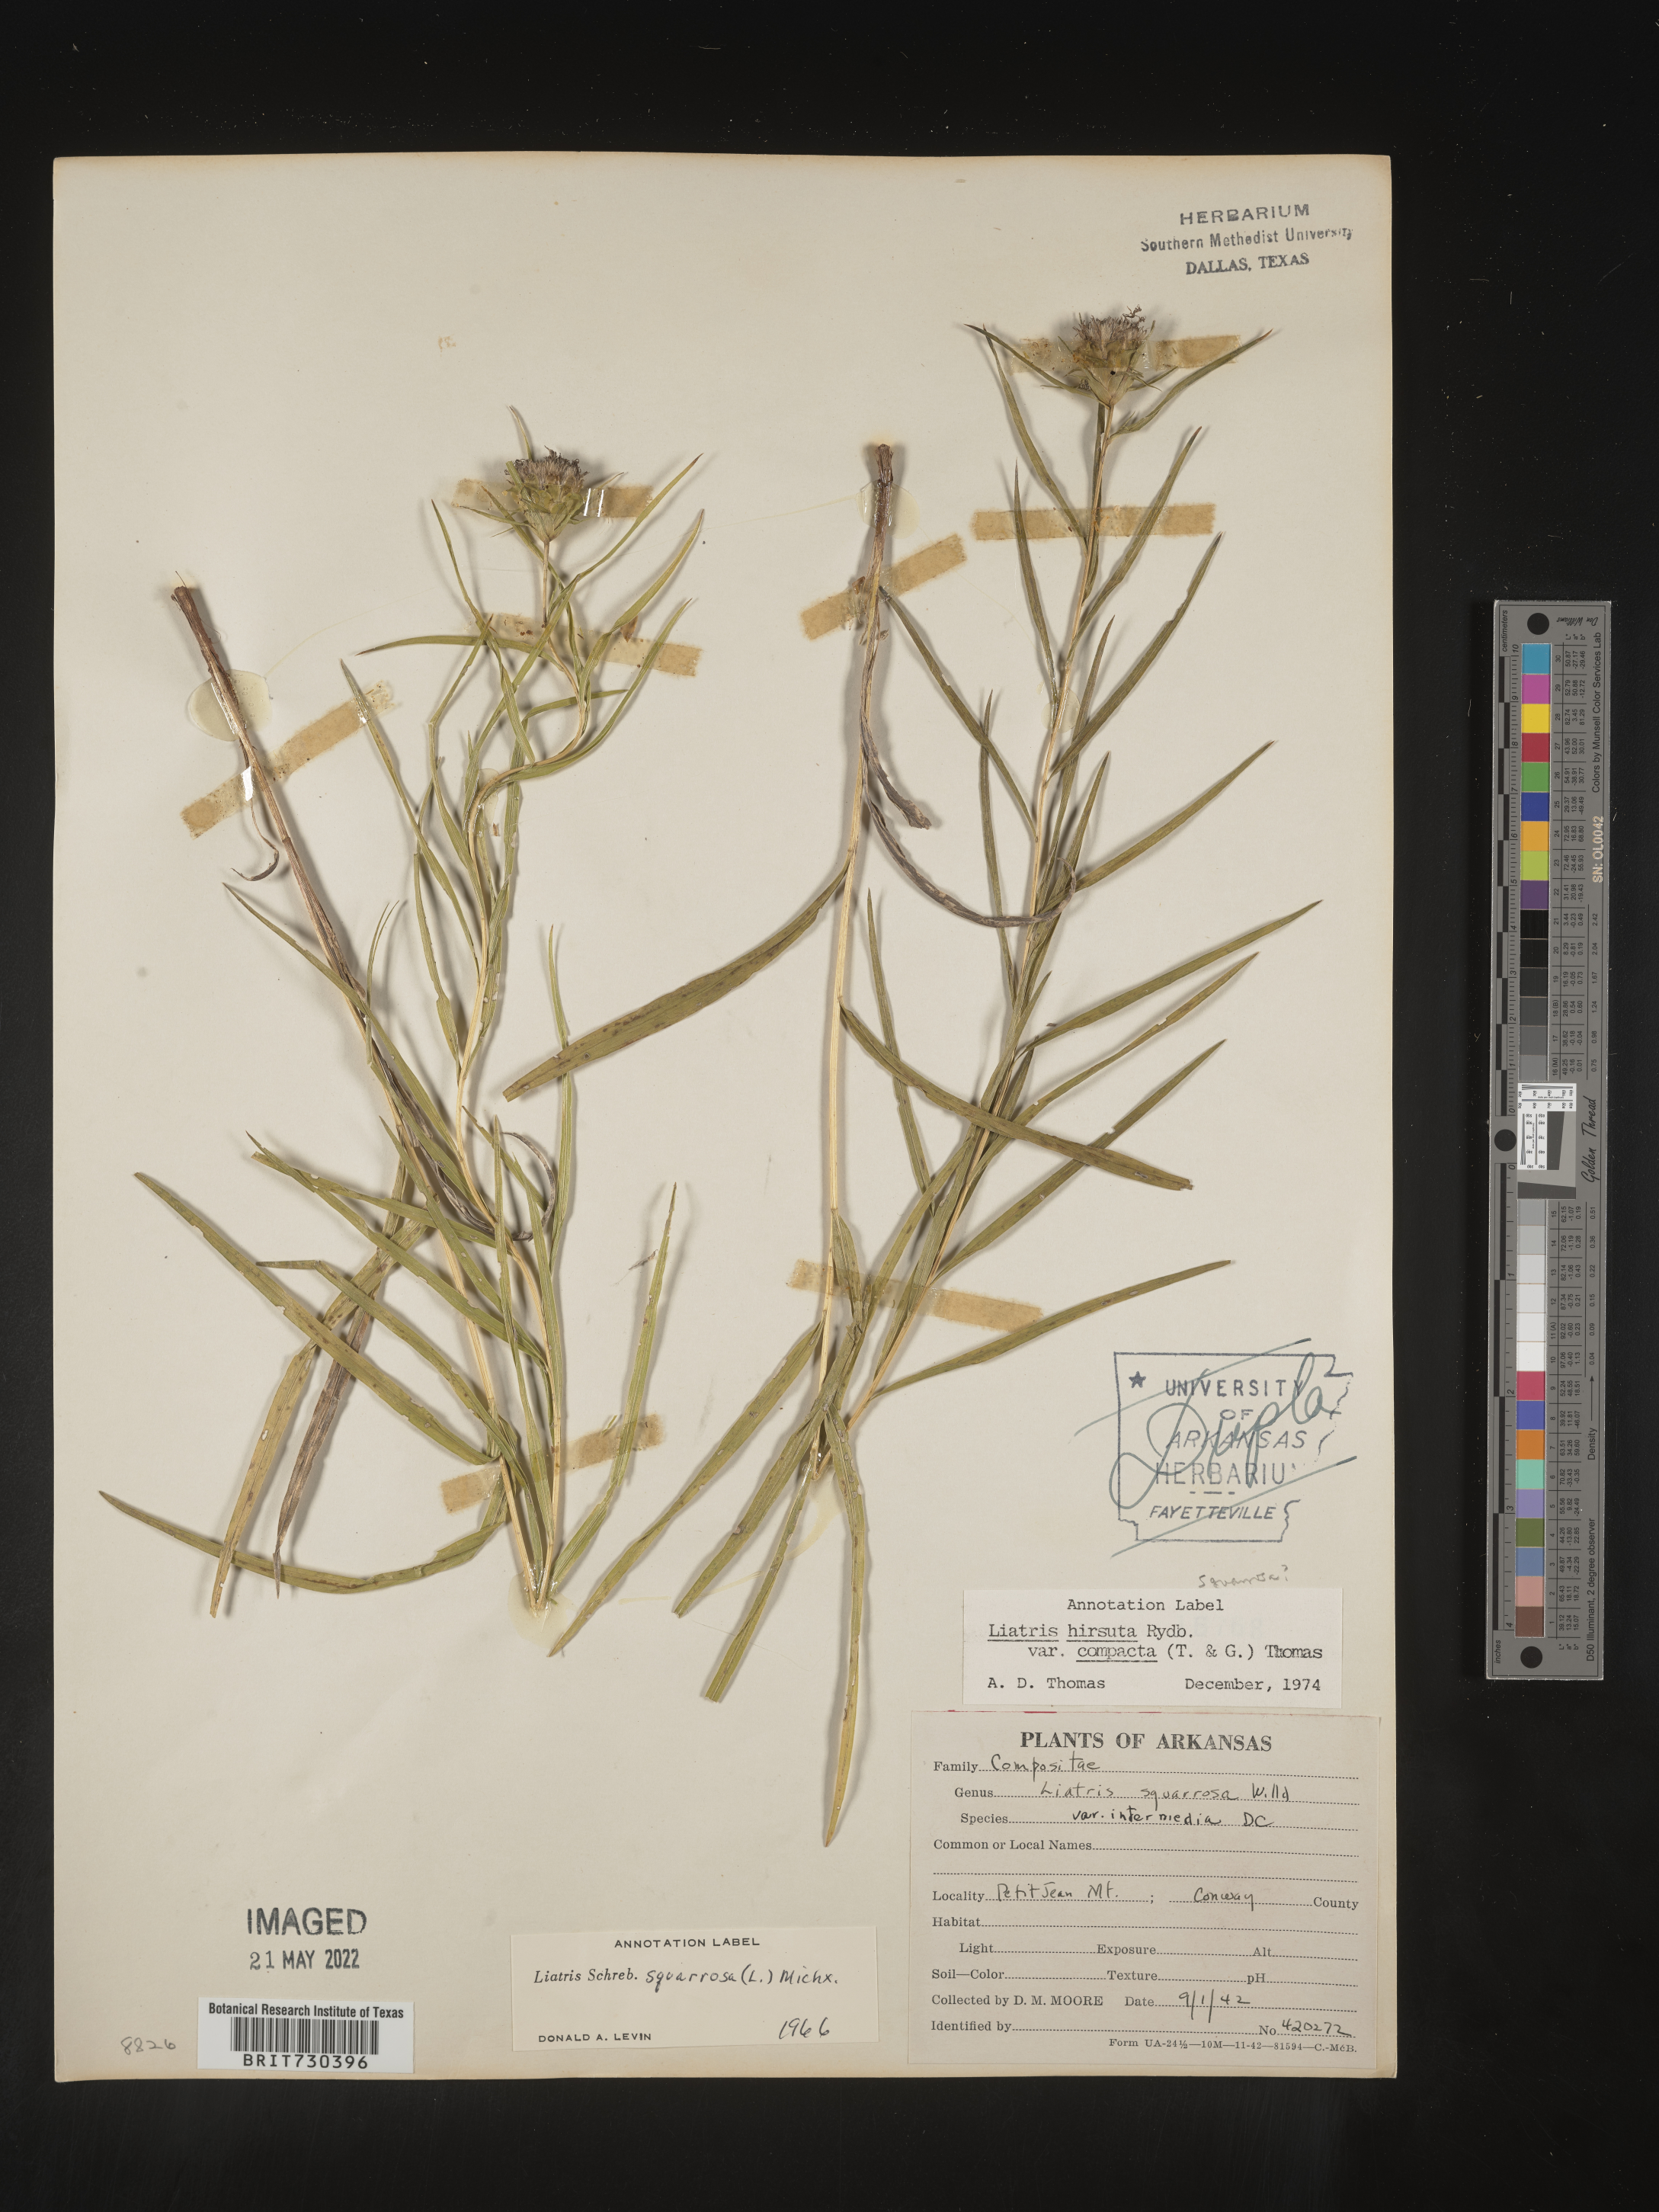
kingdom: Plantae
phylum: Tracheophyta
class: Magnoliopsida
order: Asterales
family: Asteraceae
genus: Liatris
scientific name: Liatris compacta
